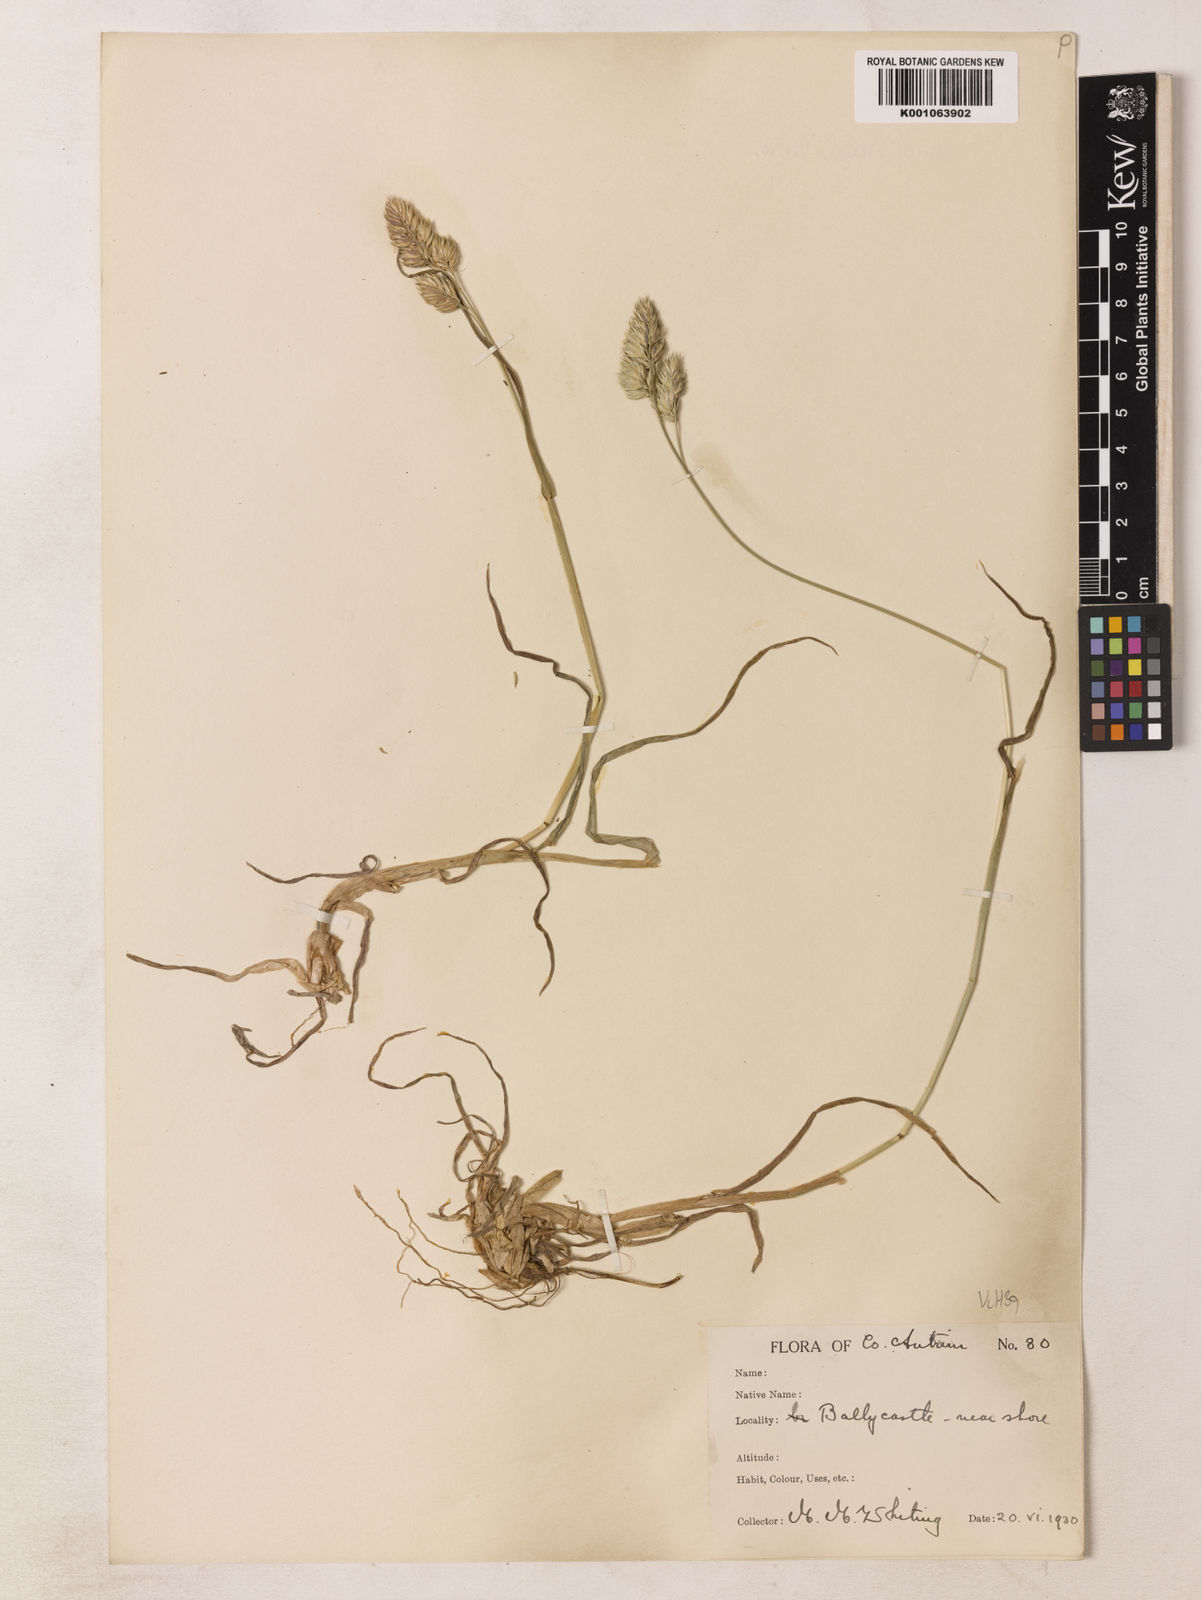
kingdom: Plantae
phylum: Tracheophyta
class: Liliopsida
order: Poales
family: Poaceae
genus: Dactylis
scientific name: Dactylis glomerata
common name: Orchardgrass
